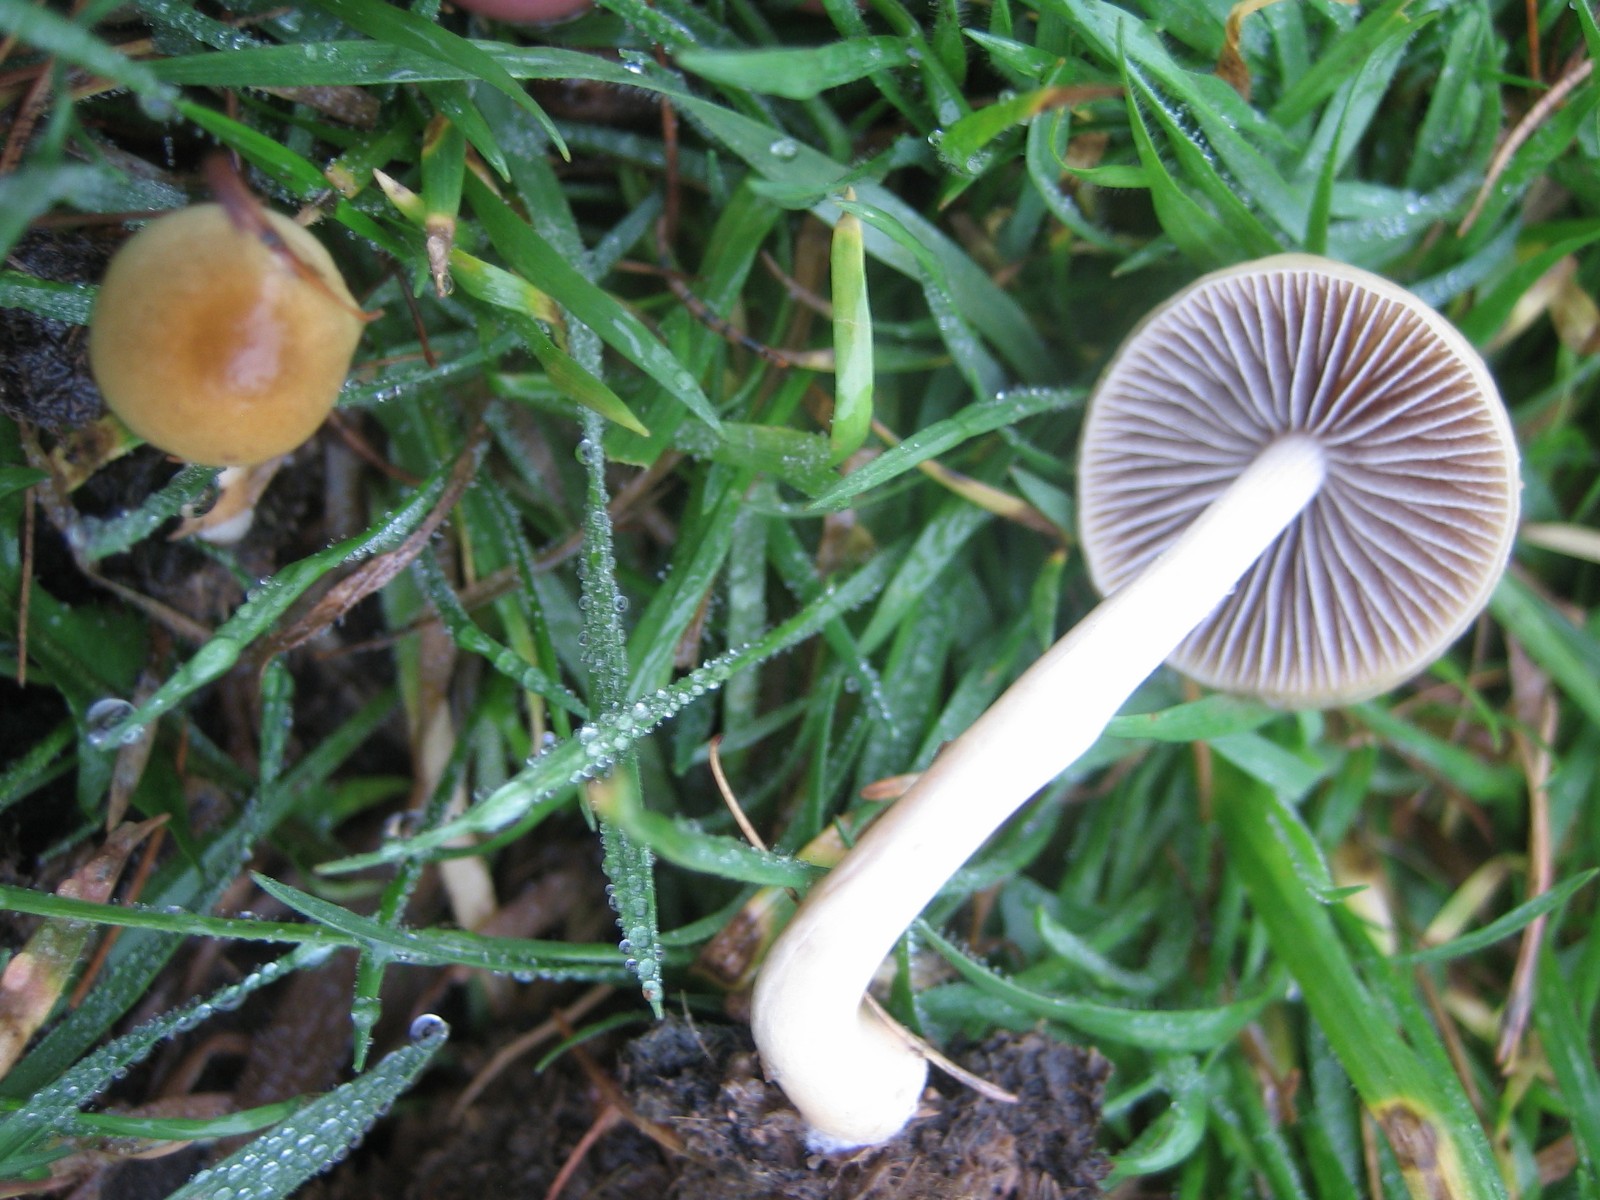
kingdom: Fungi
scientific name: Fungi
